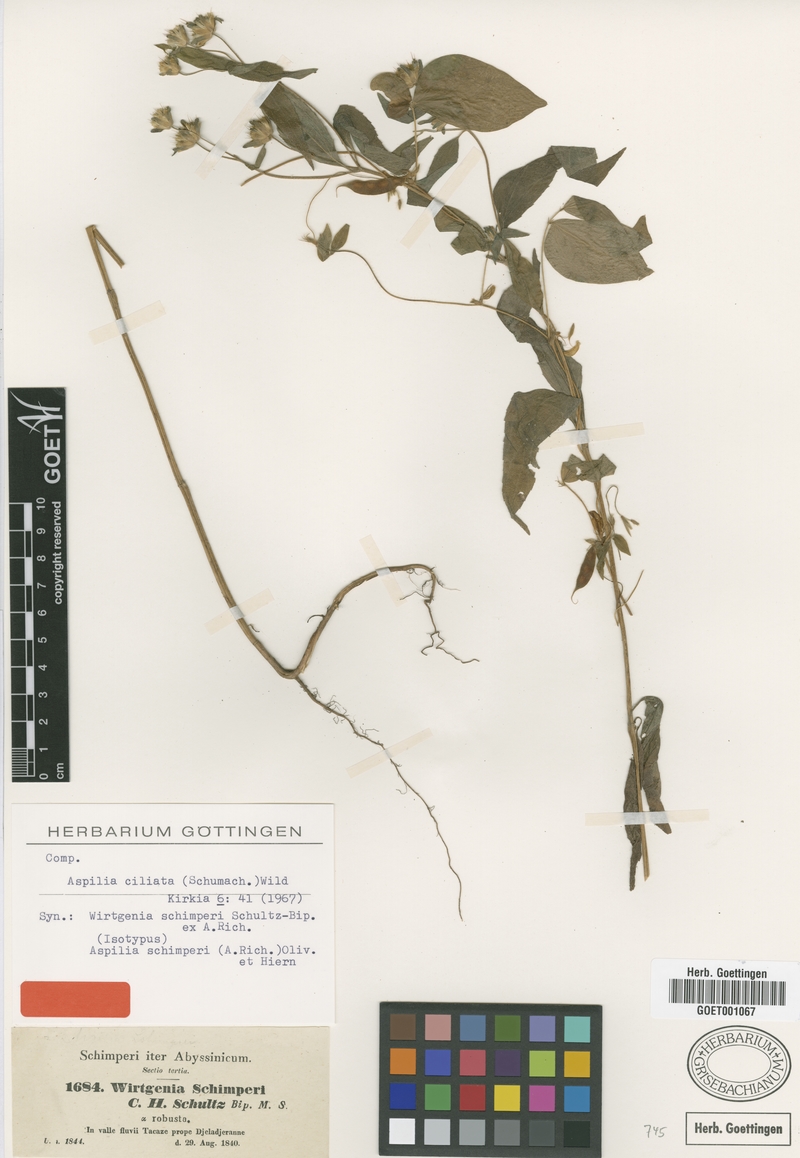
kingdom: Plantae
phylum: Tracheophyta
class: Magnoliopsida
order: Asterales
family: Asteraceae
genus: Aspilia
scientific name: Aspilia ciliata
